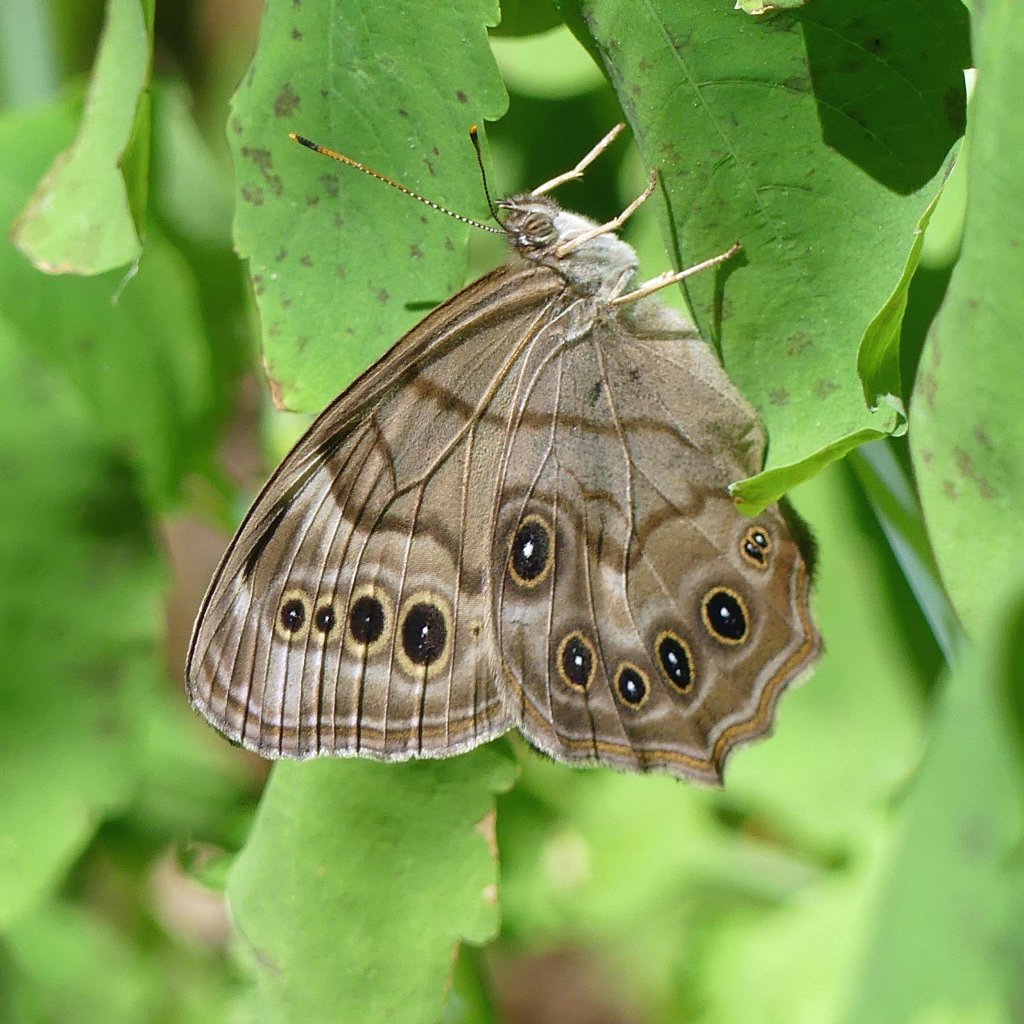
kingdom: Animalia
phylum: Arthropoda
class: Insecta
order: Lepidoptera
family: Nymphalidae
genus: Lethe
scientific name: Lethe anthedon
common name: Northern Pearly-Eye
